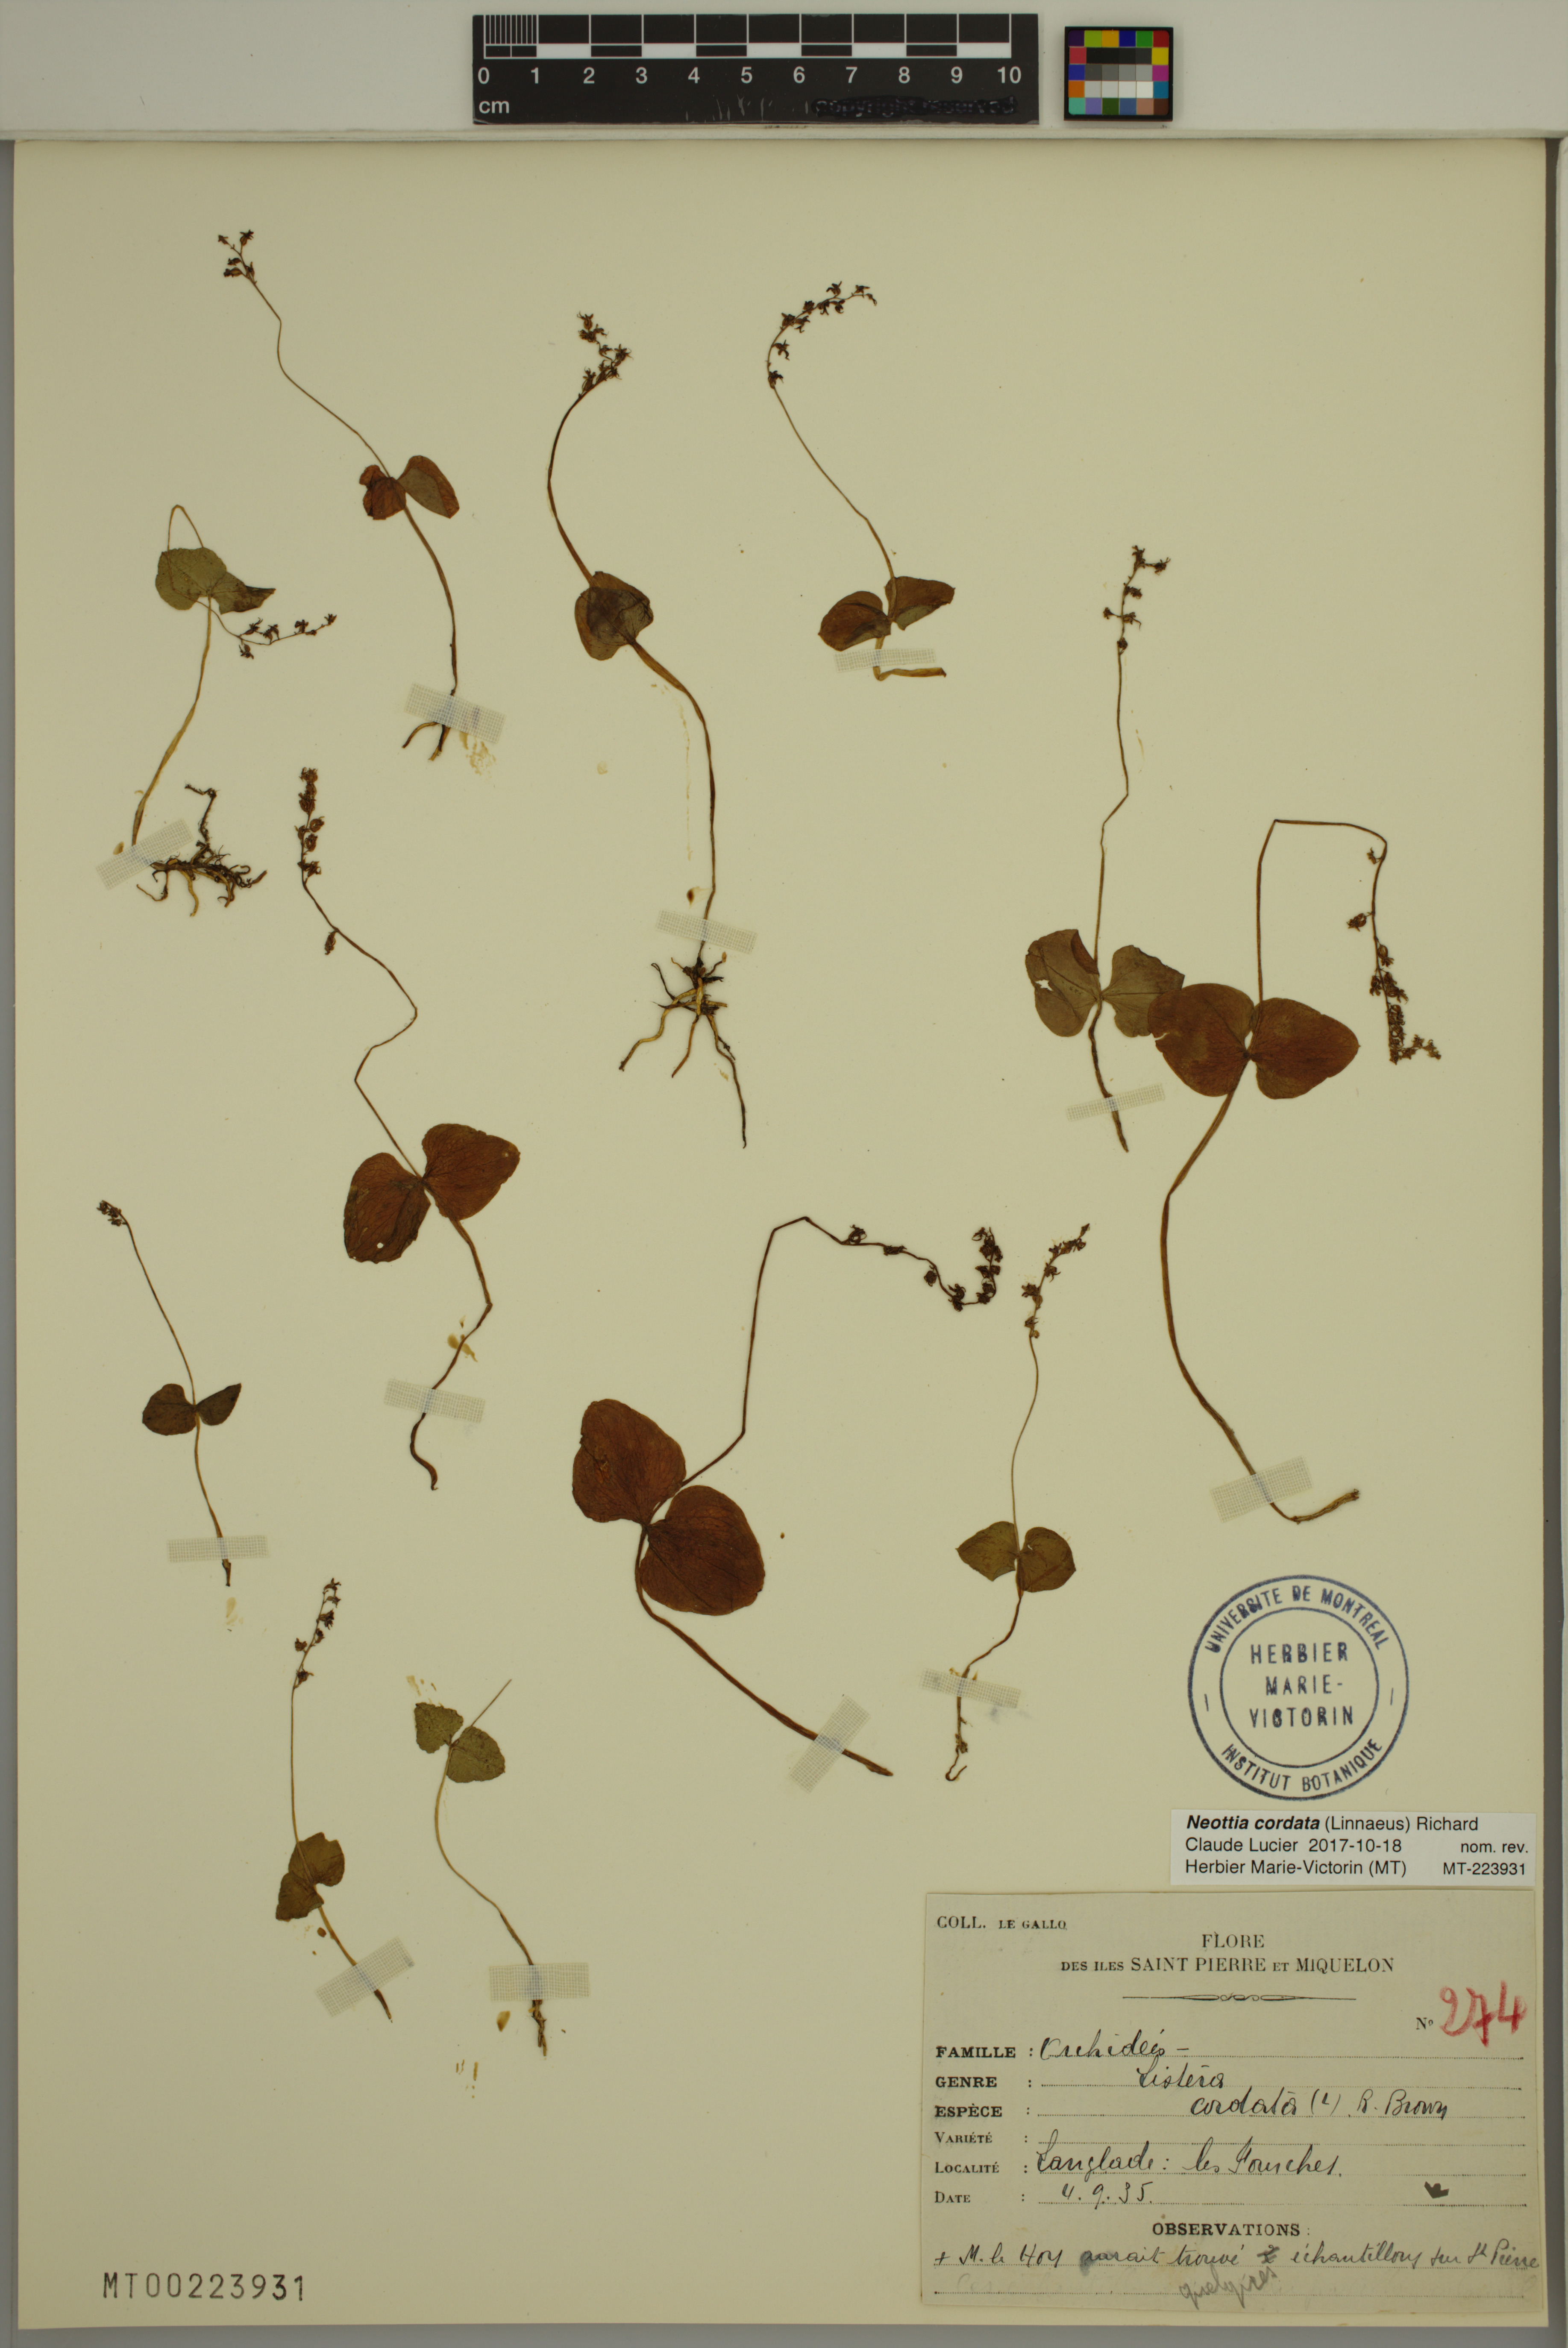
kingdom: Plantae
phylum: Tracheophyta
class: Liliopsida
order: Asparagales
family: Orchidaceae
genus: Neottia
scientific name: Neottia cordata
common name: Lesser twayblade
